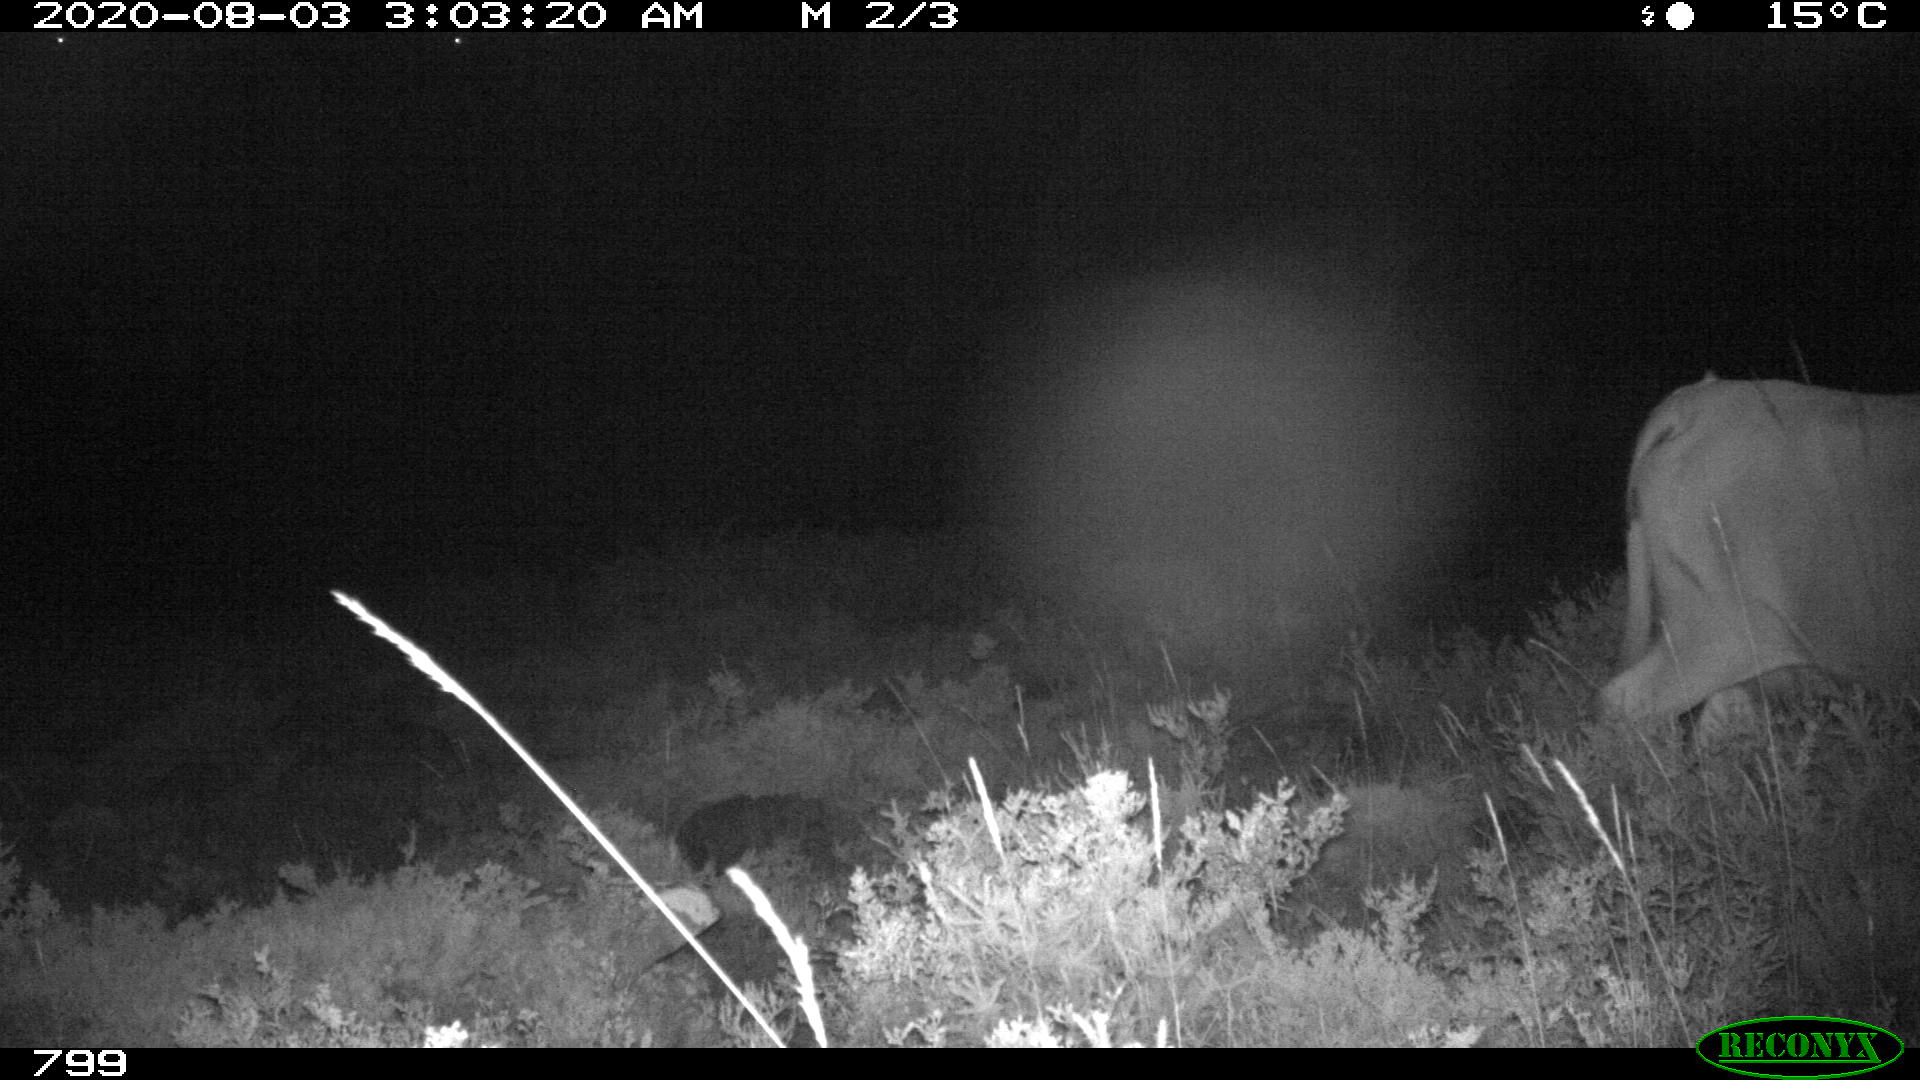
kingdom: Animalia
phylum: Chordata
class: Mammalia
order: Artiodactyla
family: Bovidae
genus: Bos
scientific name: Bos taurus
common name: Domesticated cattle
